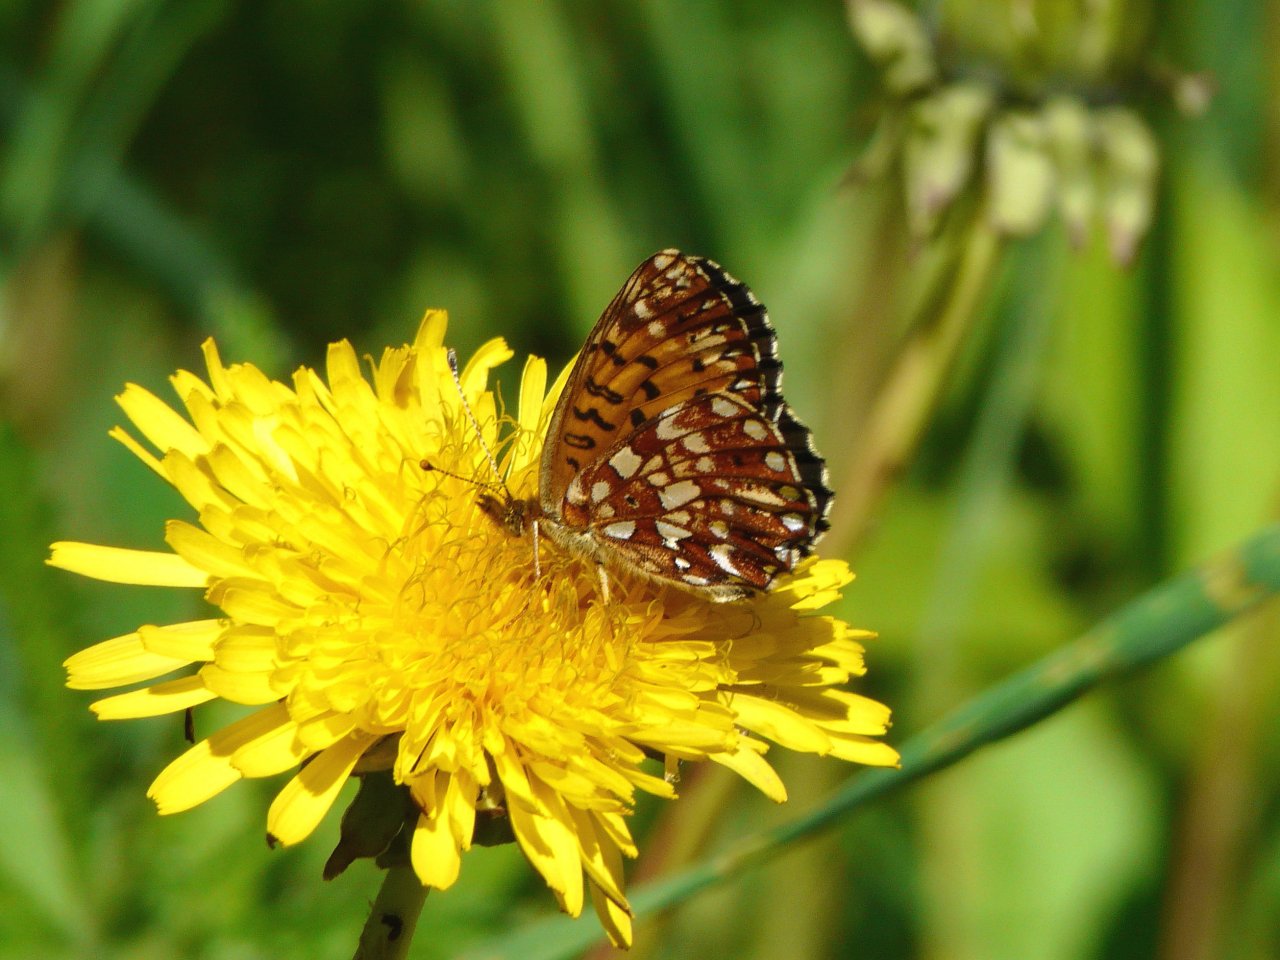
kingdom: Animalia
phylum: Arthropoda
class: Insecta
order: Lepidoptera
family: Nymphalidae
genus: Boloria
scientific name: Boloria selene
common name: Silver-bordered Fritillary
